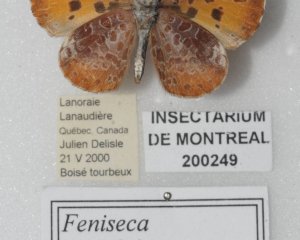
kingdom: Animalia
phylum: Arthropoda
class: Insecta
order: Lepidoptera
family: Lycaenidae
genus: Feniseca
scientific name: Feniseca tarquinius
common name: Harvester
